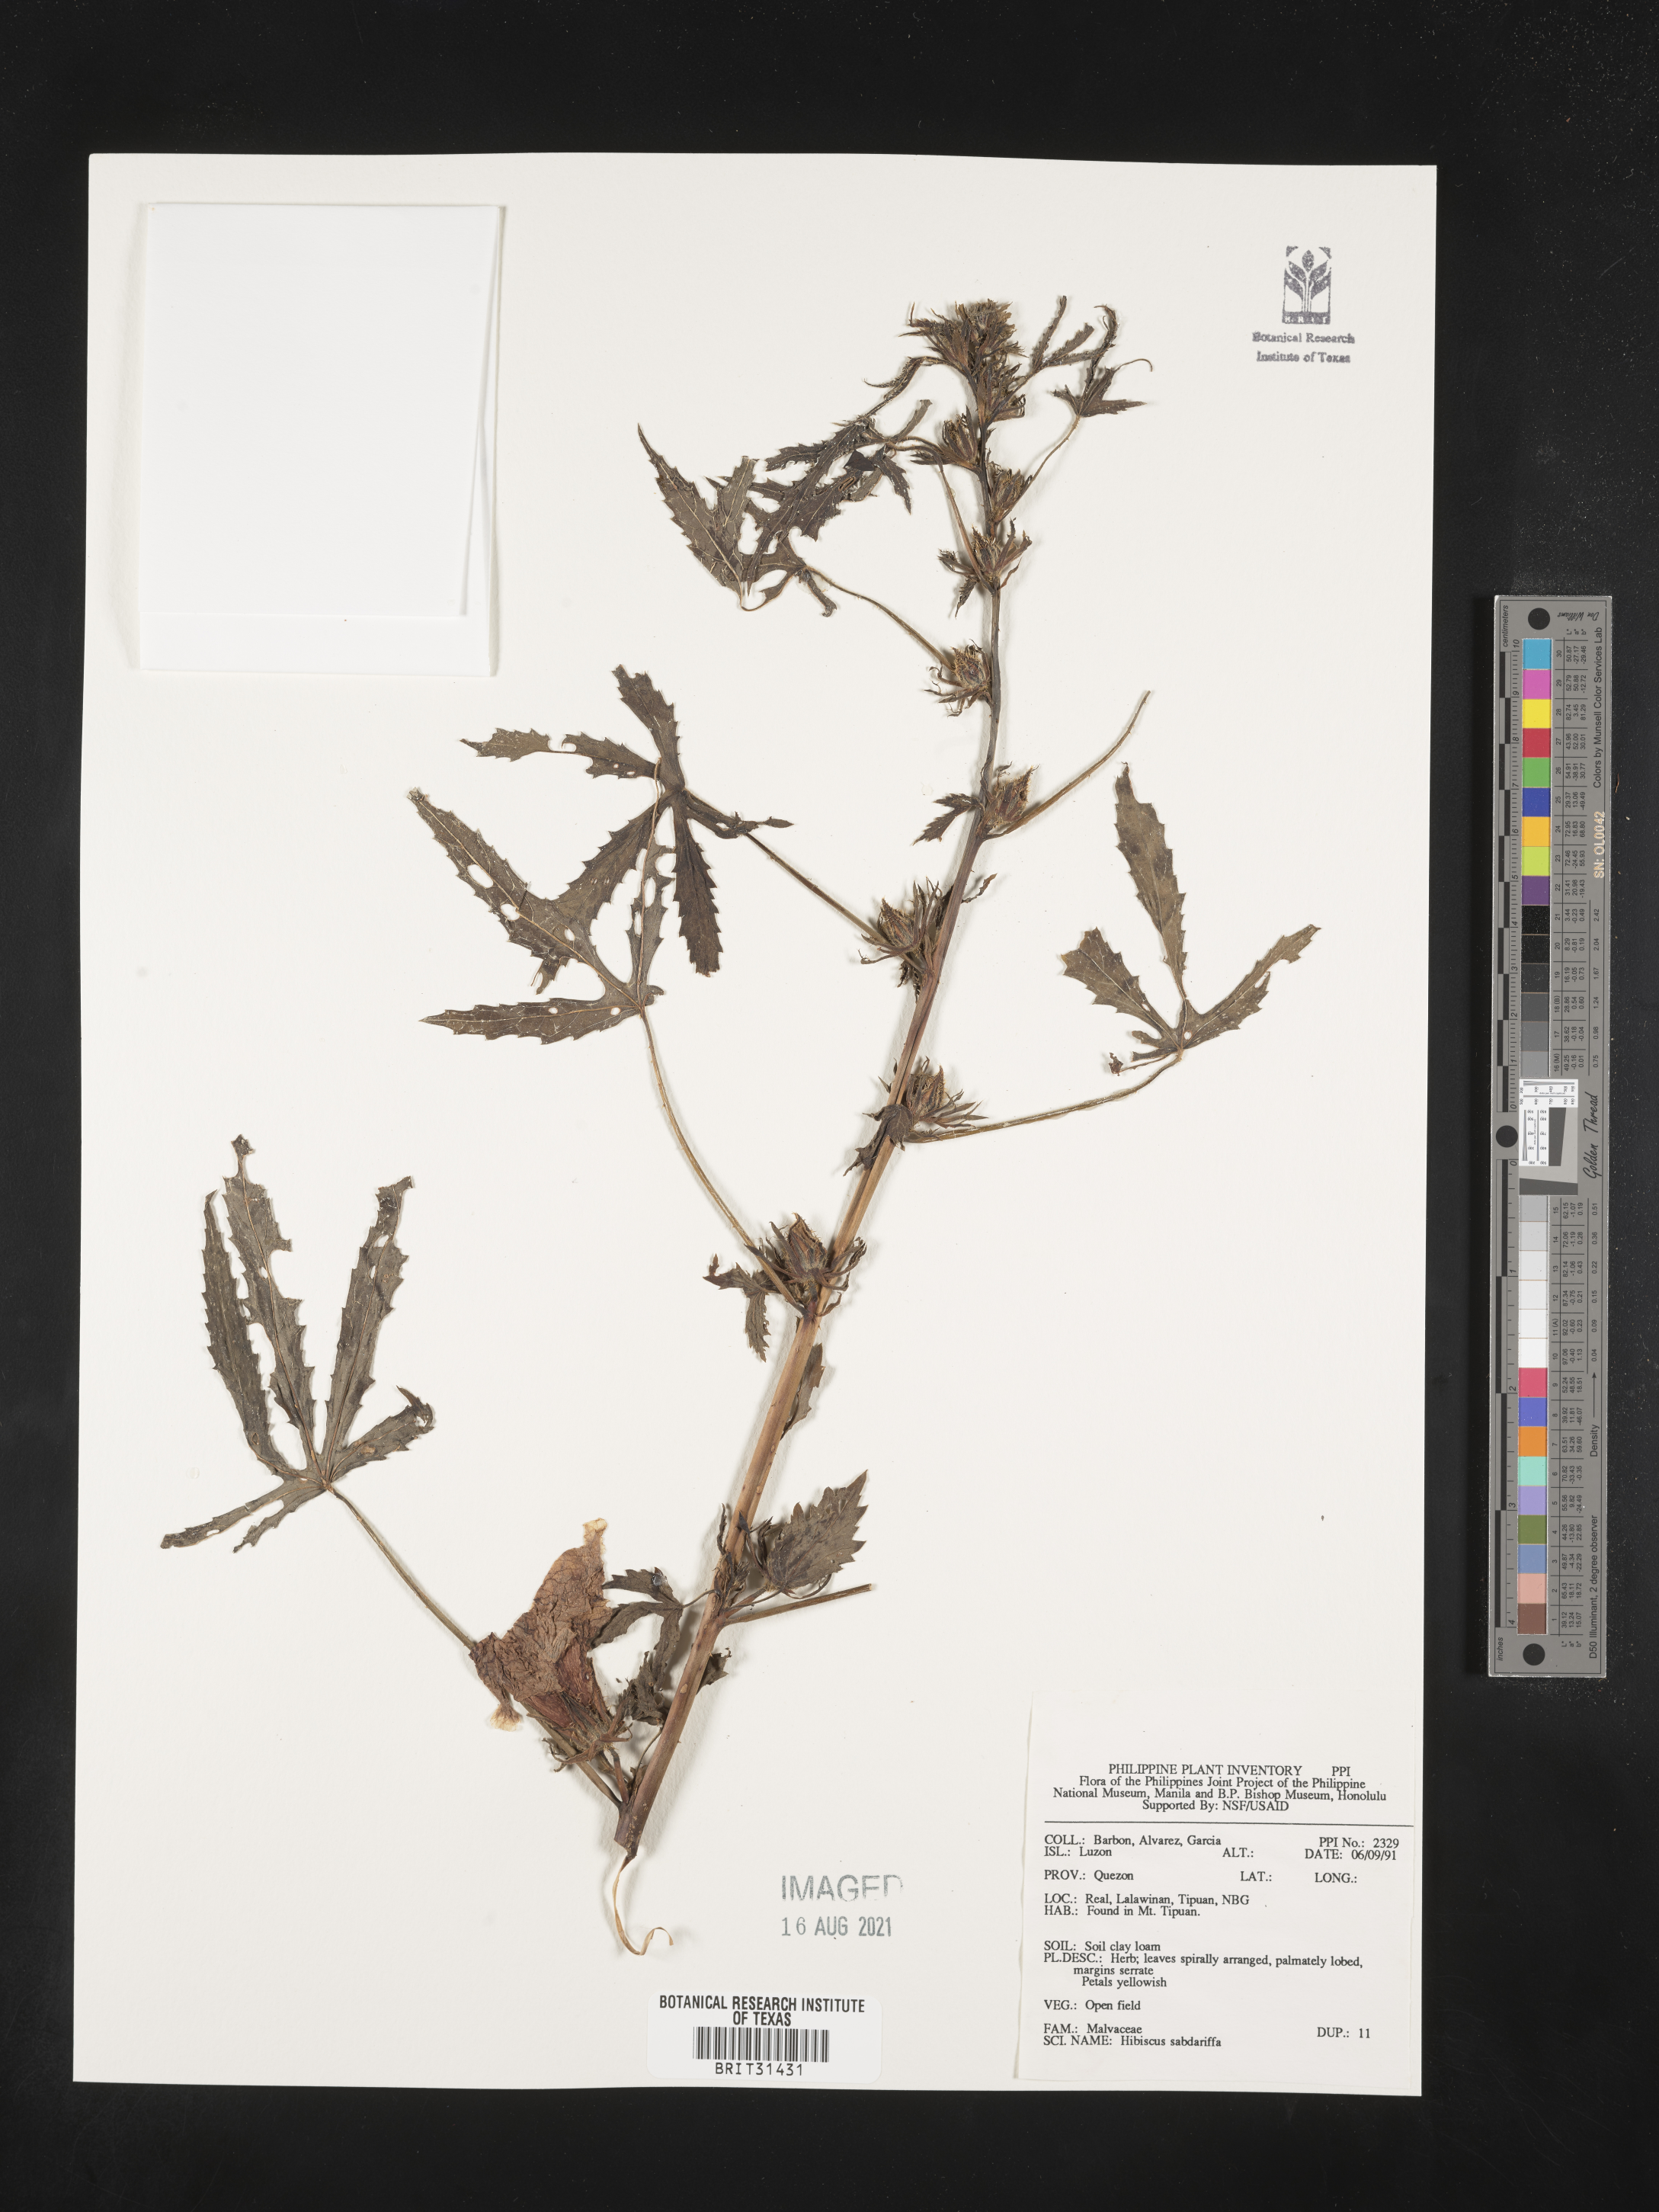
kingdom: Plantae
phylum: Tracheophyta
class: Magnoliopsida
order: Malvales
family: Malvaceae
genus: Hibiscus
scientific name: Hibiscus sabdariffa
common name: Roselle
